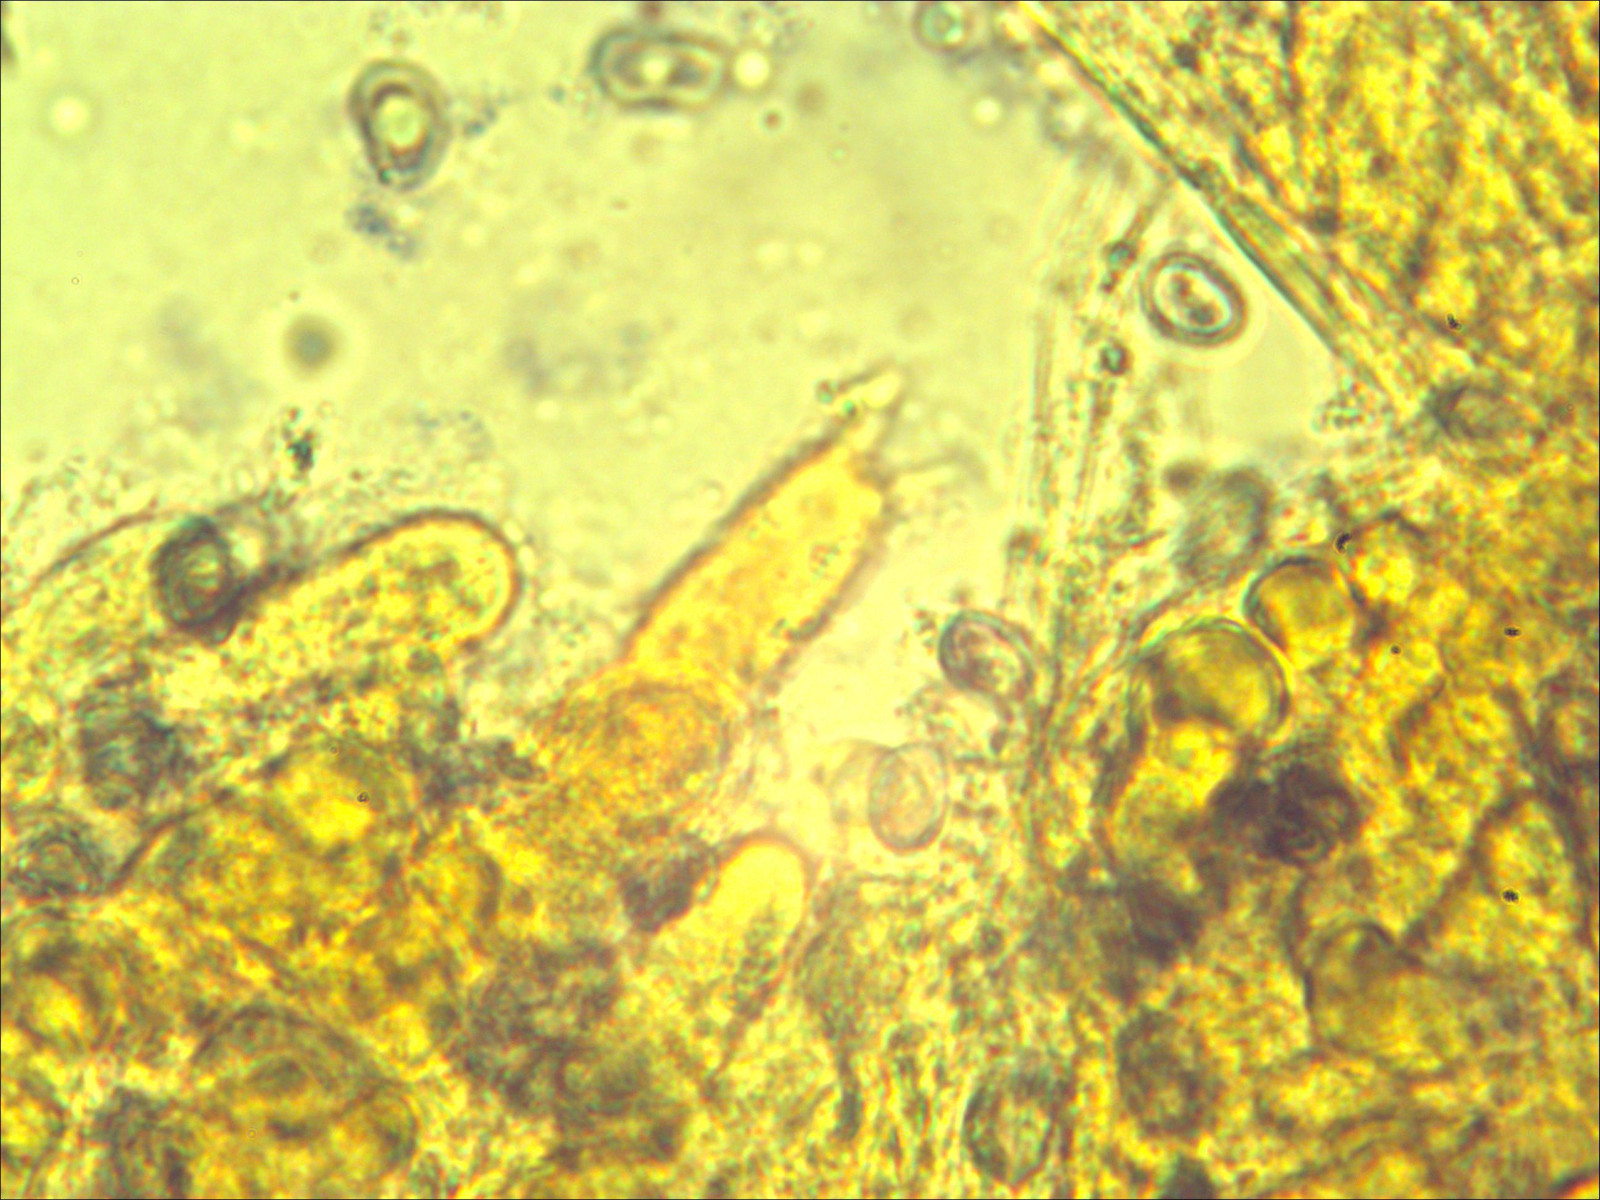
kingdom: Fungi
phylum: Basidiomycota
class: Agaricomycetes
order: Agaricales
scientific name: Agaricales
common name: champignonordenen
